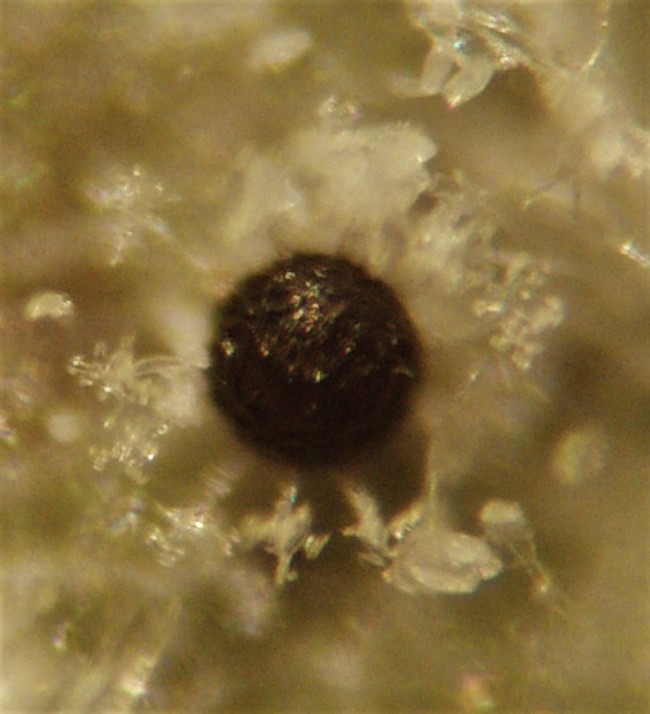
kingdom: Fungi
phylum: Ascomycota
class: Leotiomycetes
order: Helotiales
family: Erysiphaceae
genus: Erysiphe
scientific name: Erysiphe magnifica
